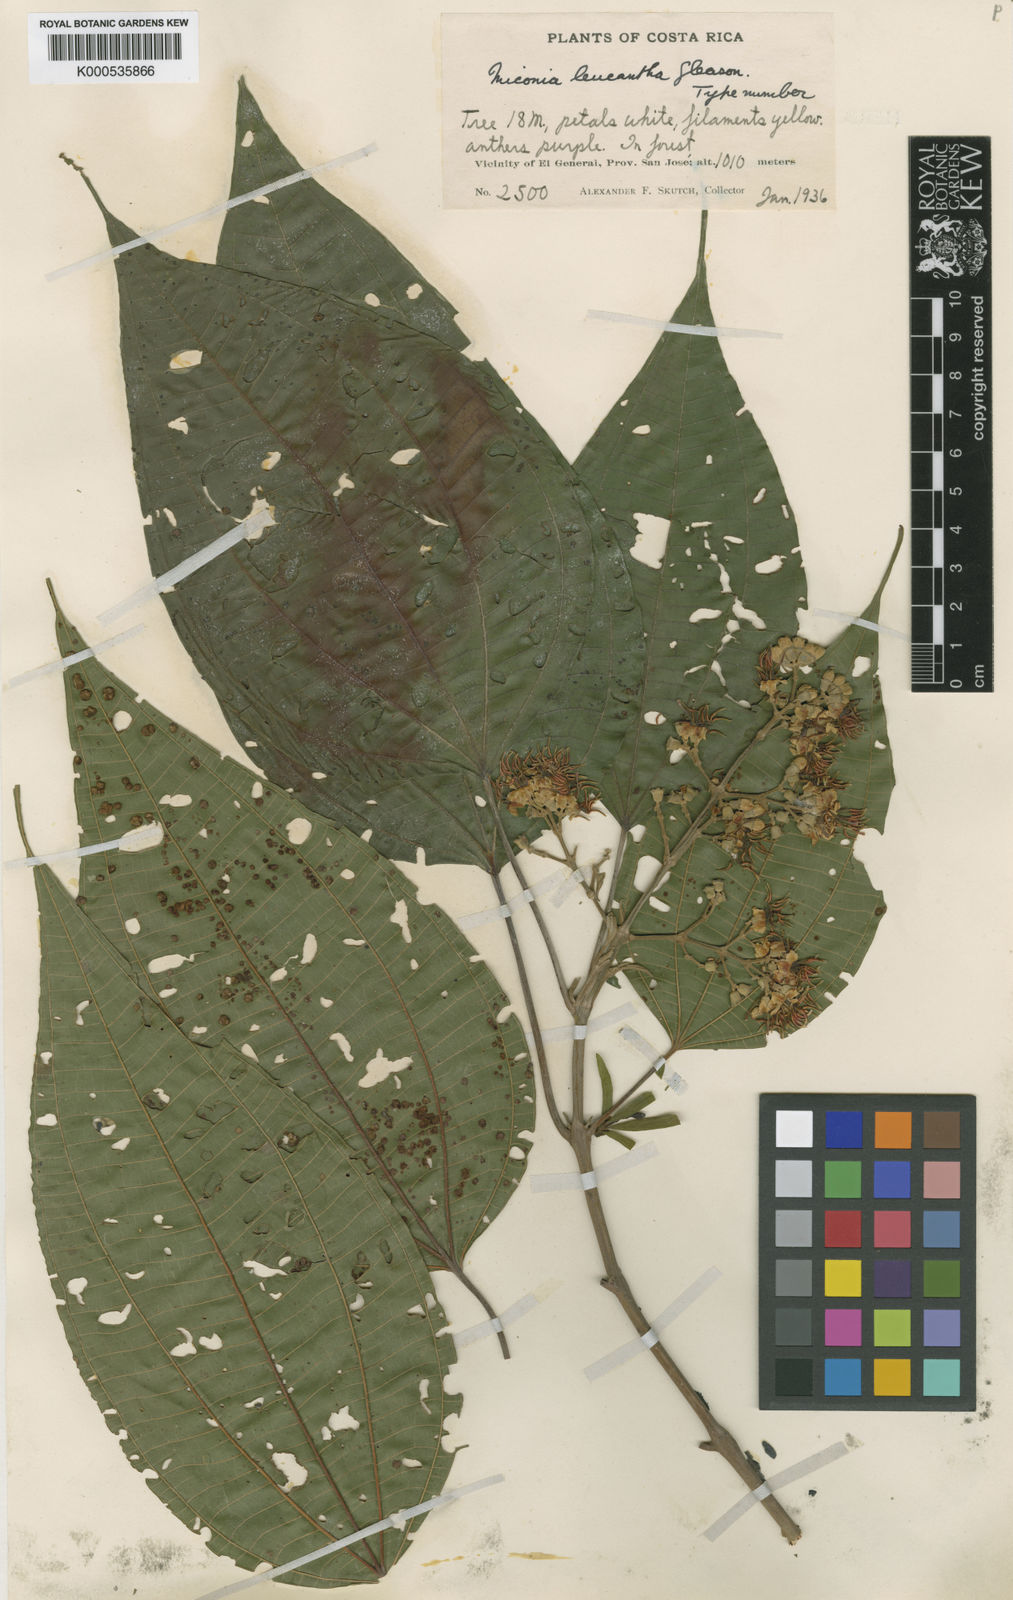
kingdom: Plantae
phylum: Tracheophyta
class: Magnoliopsida
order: Myrtales
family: Melastomataceae
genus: Miconia
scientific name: Miconia donaeana
